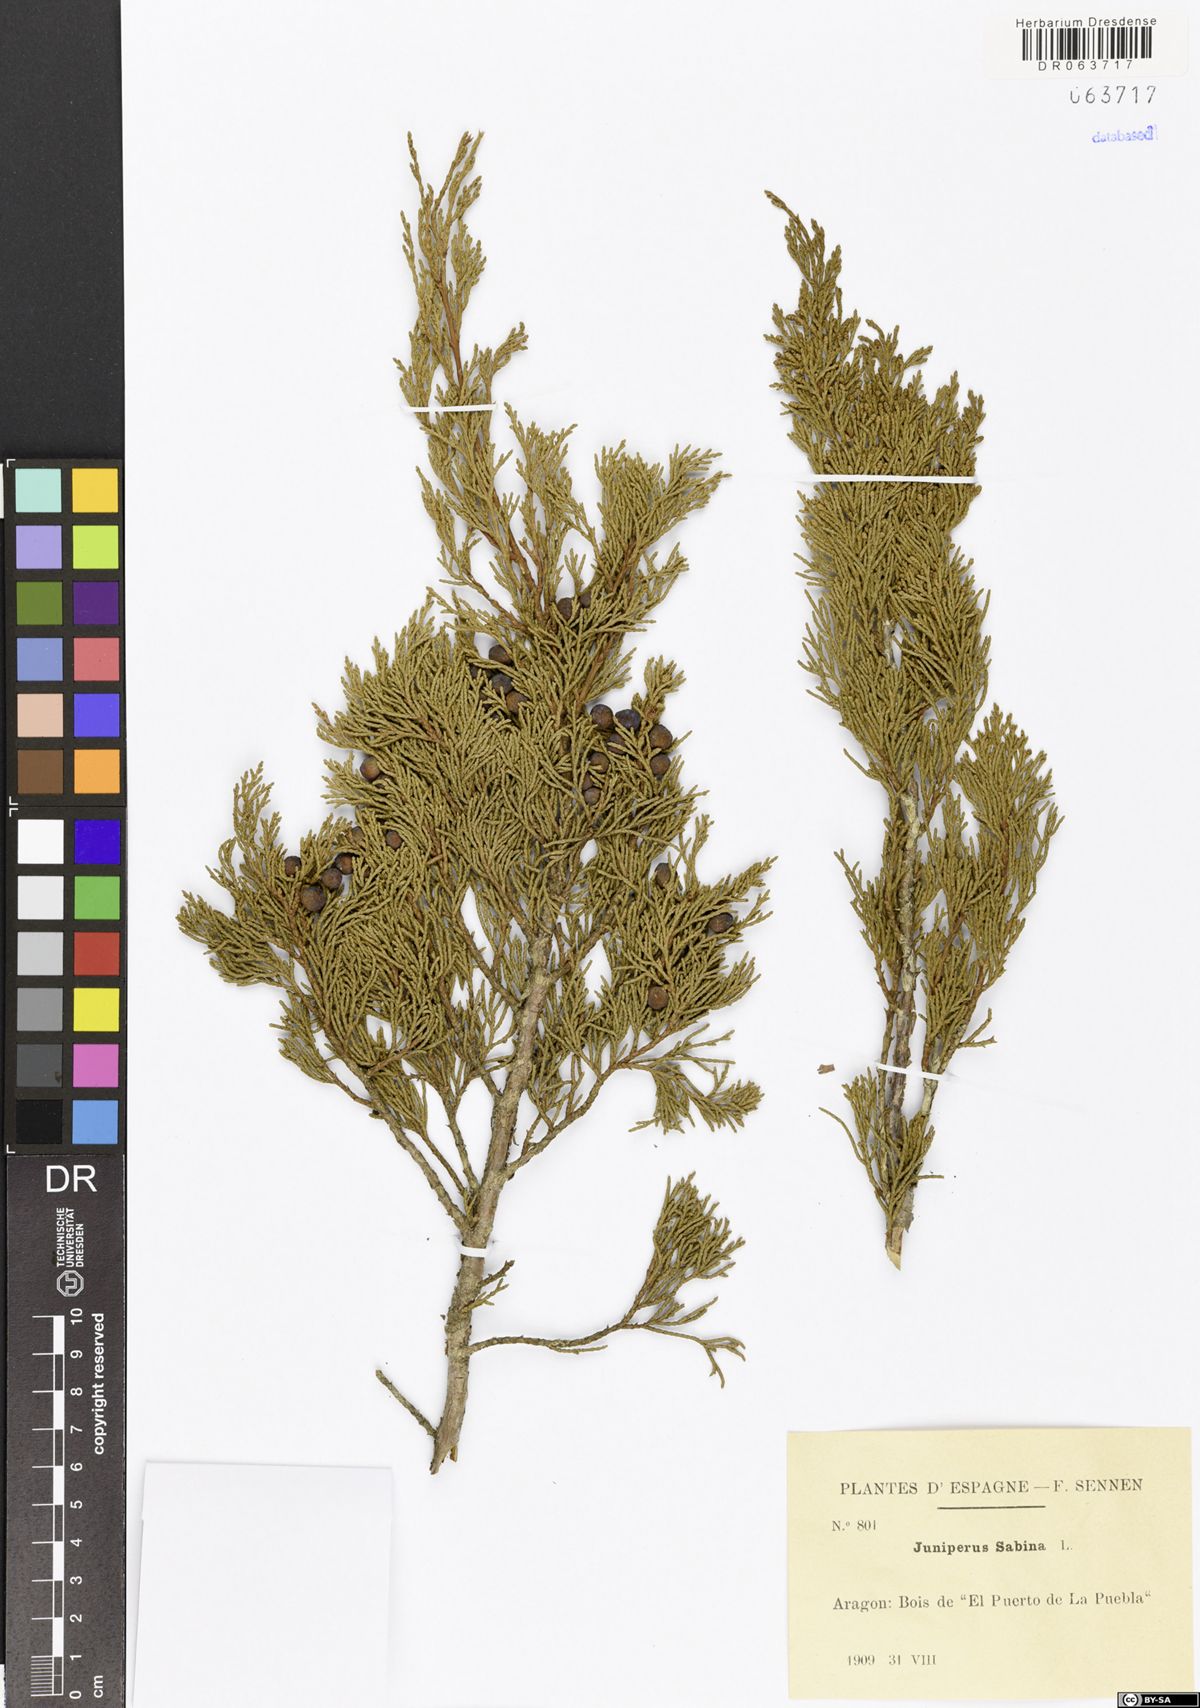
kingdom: Plantae
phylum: Tracheophyta
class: Pinopsida
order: Pinales
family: Cupressaceae
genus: Juniperus
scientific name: Juniperus sabina
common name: Savin
